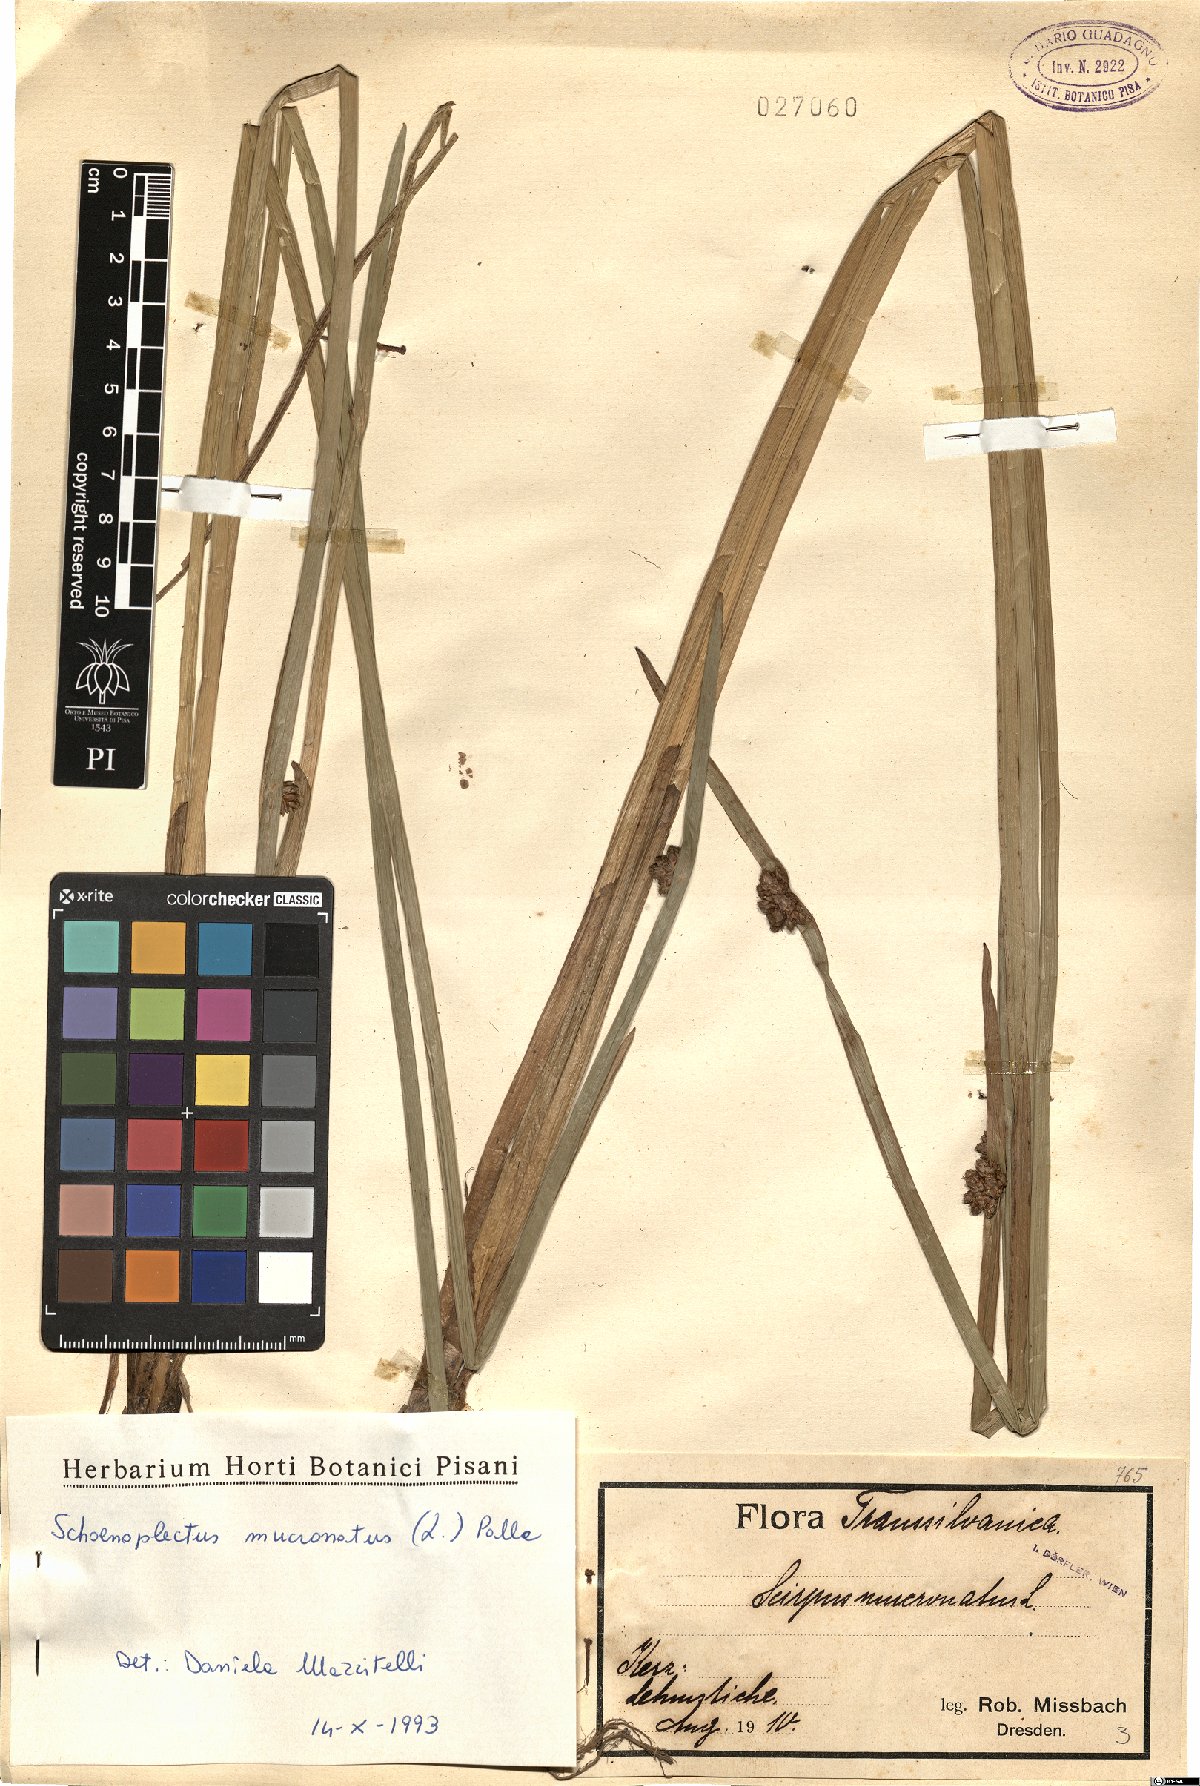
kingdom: Plantae
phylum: Tracheophyta
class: Liliopsida
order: Poales
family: Cyperaceae
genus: Schoenoplectiella
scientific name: Schoenoplectiella mucronata
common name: Bog bulrush
